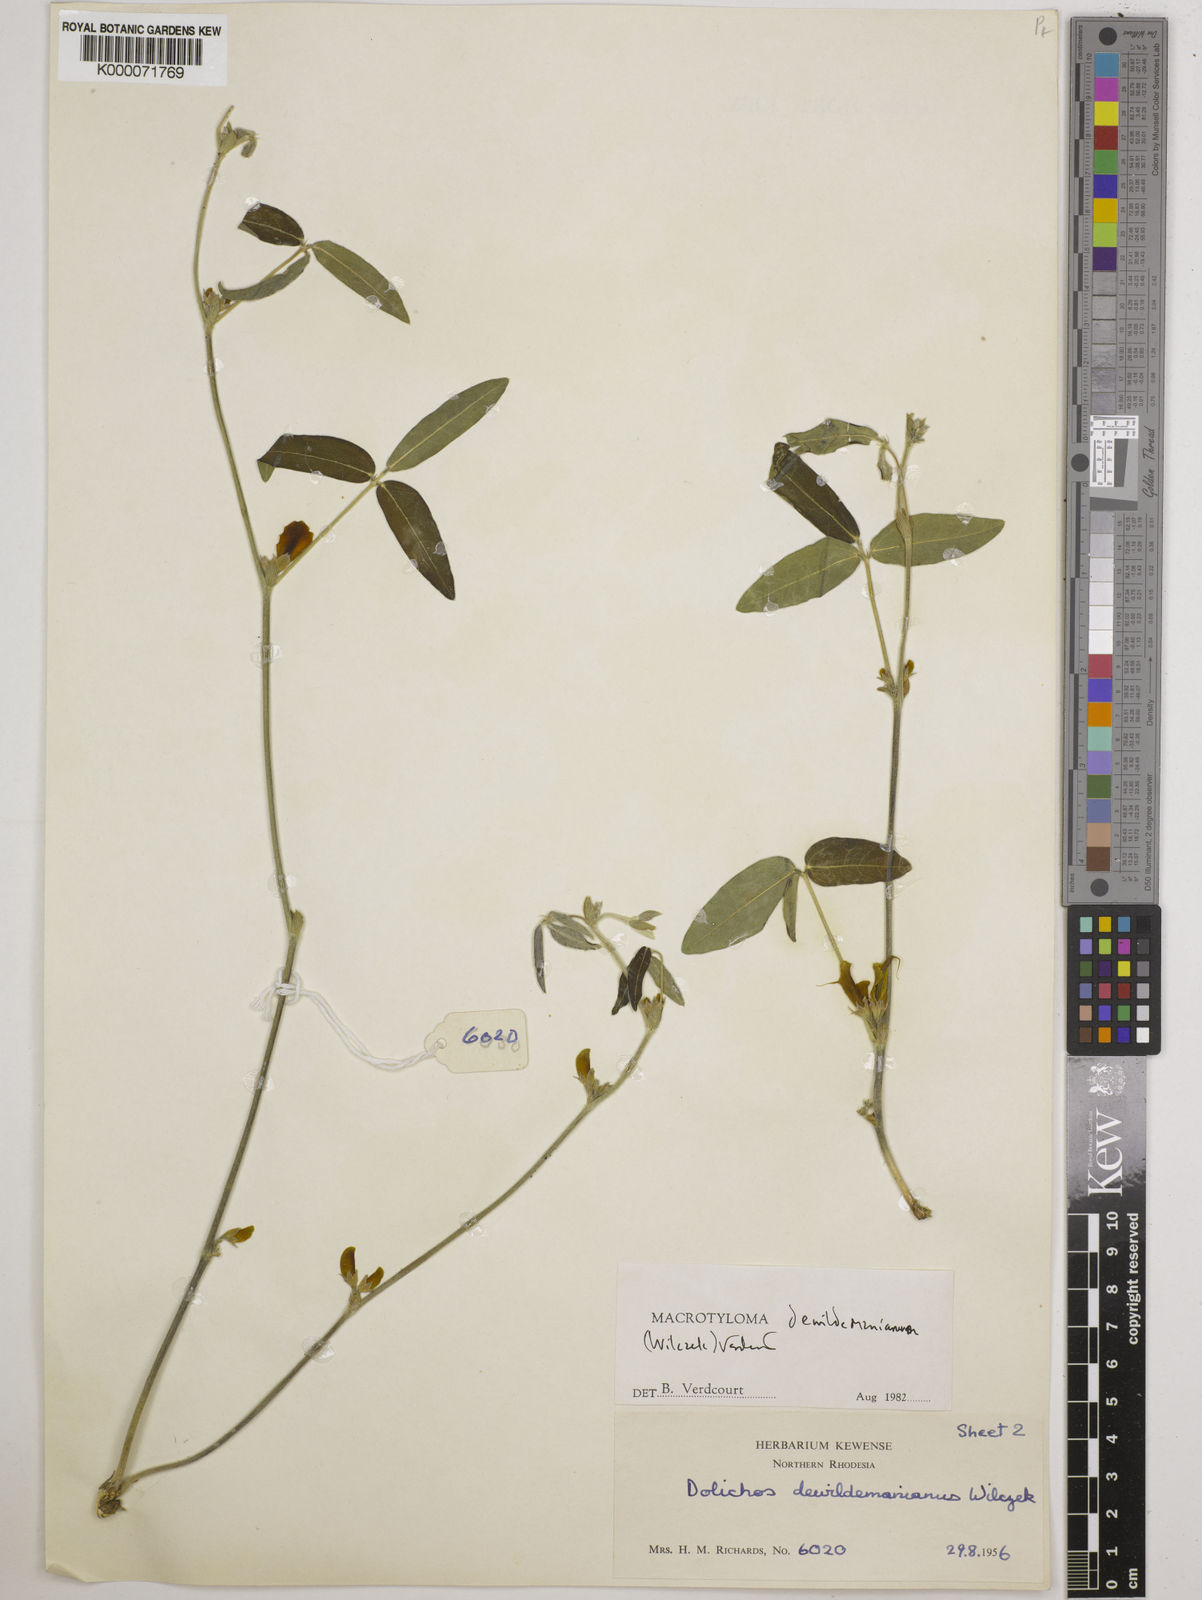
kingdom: Plantae
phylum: Tracheophyta
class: Magnoliopsida
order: Fabales
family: Fabaceae
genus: Macrotyloma
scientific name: Macrotyloma dewildemanianum
